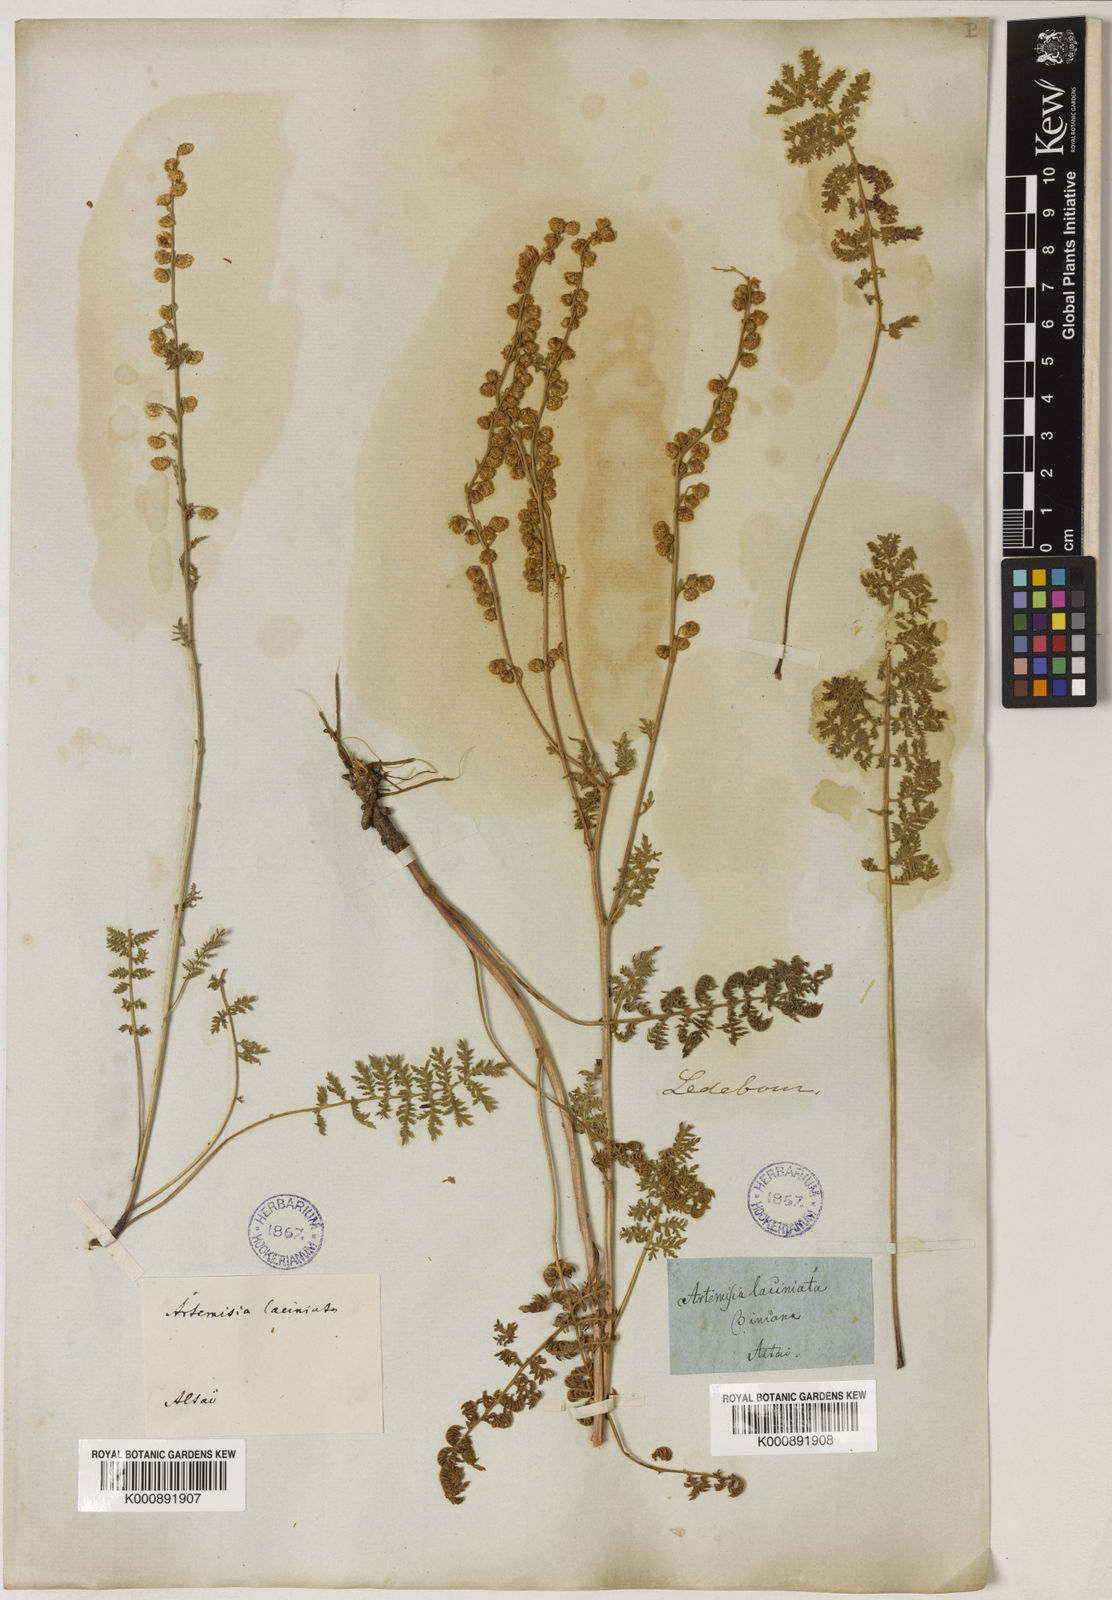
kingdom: Plantae
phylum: Tracheophyta
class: Magnoliopsida
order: Asterales
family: Asteraceae
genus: Artemisia
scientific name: Artemisia tanacetifolia
